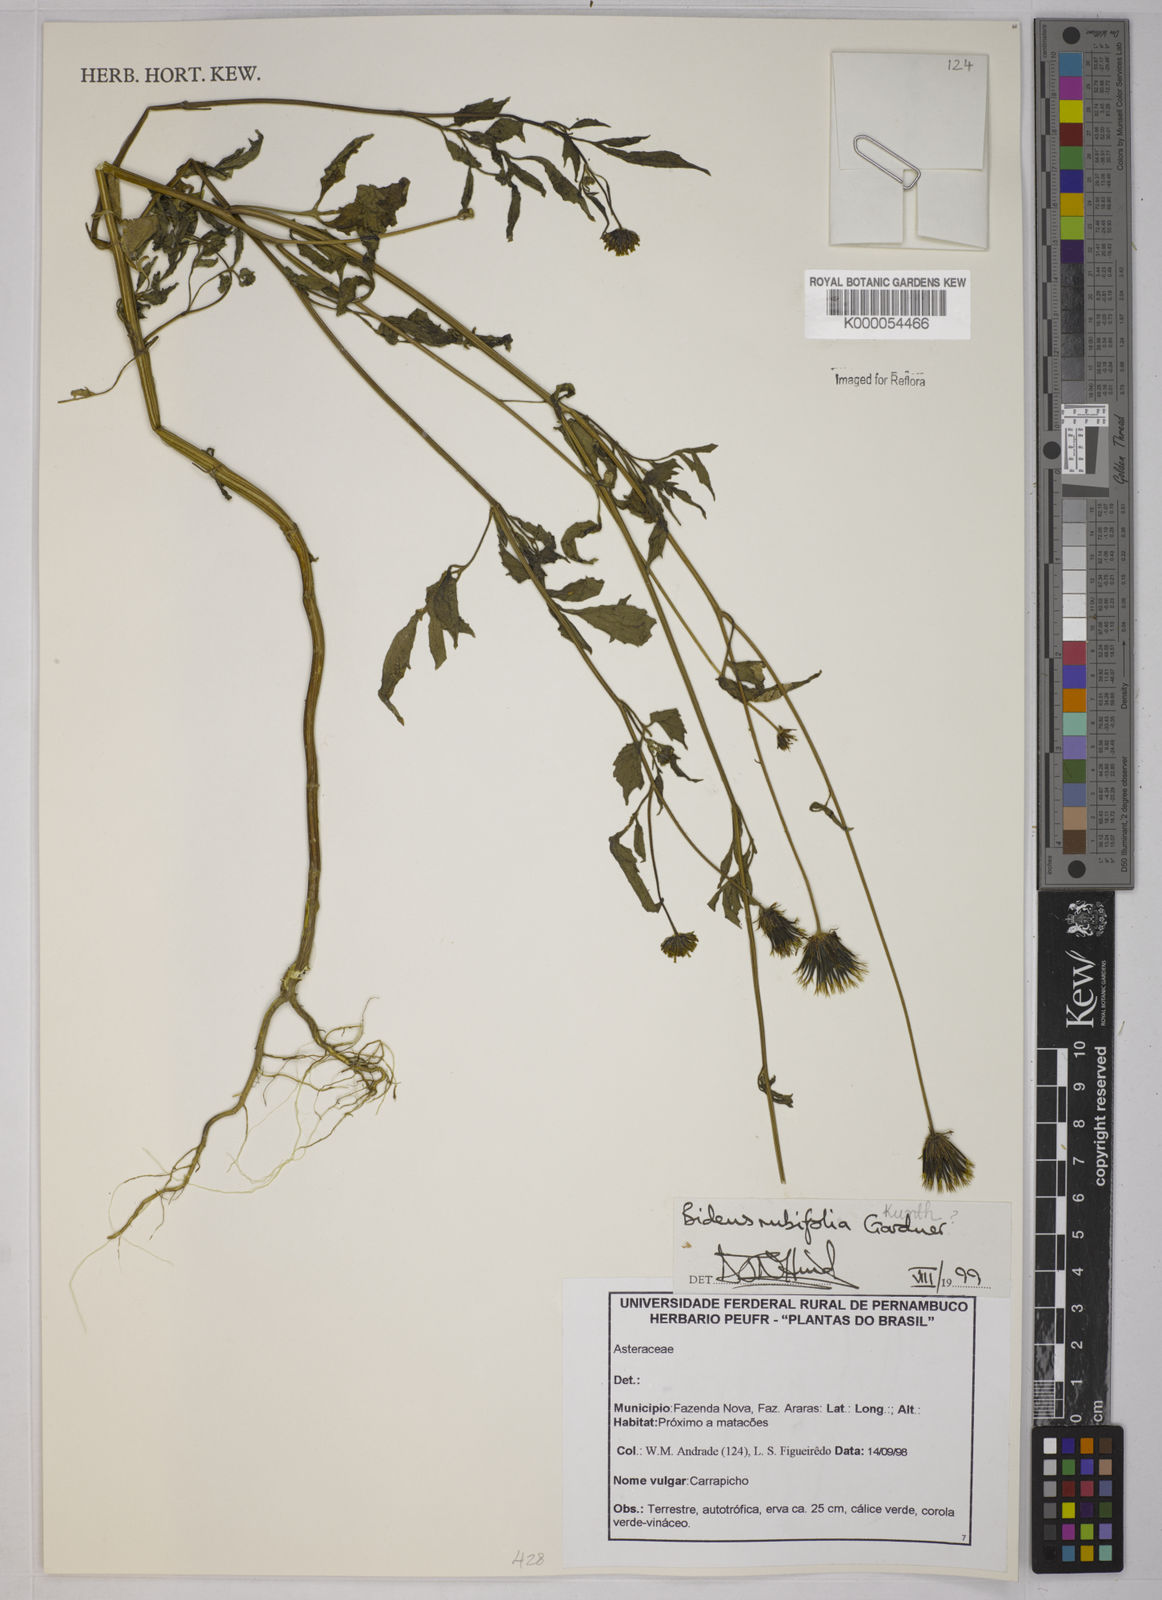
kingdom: Plantae
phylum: Tracheophyta
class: Magnoliopsida
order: Asterales
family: Asteraceae
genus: Bidens
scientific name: Bidens rubifolia
